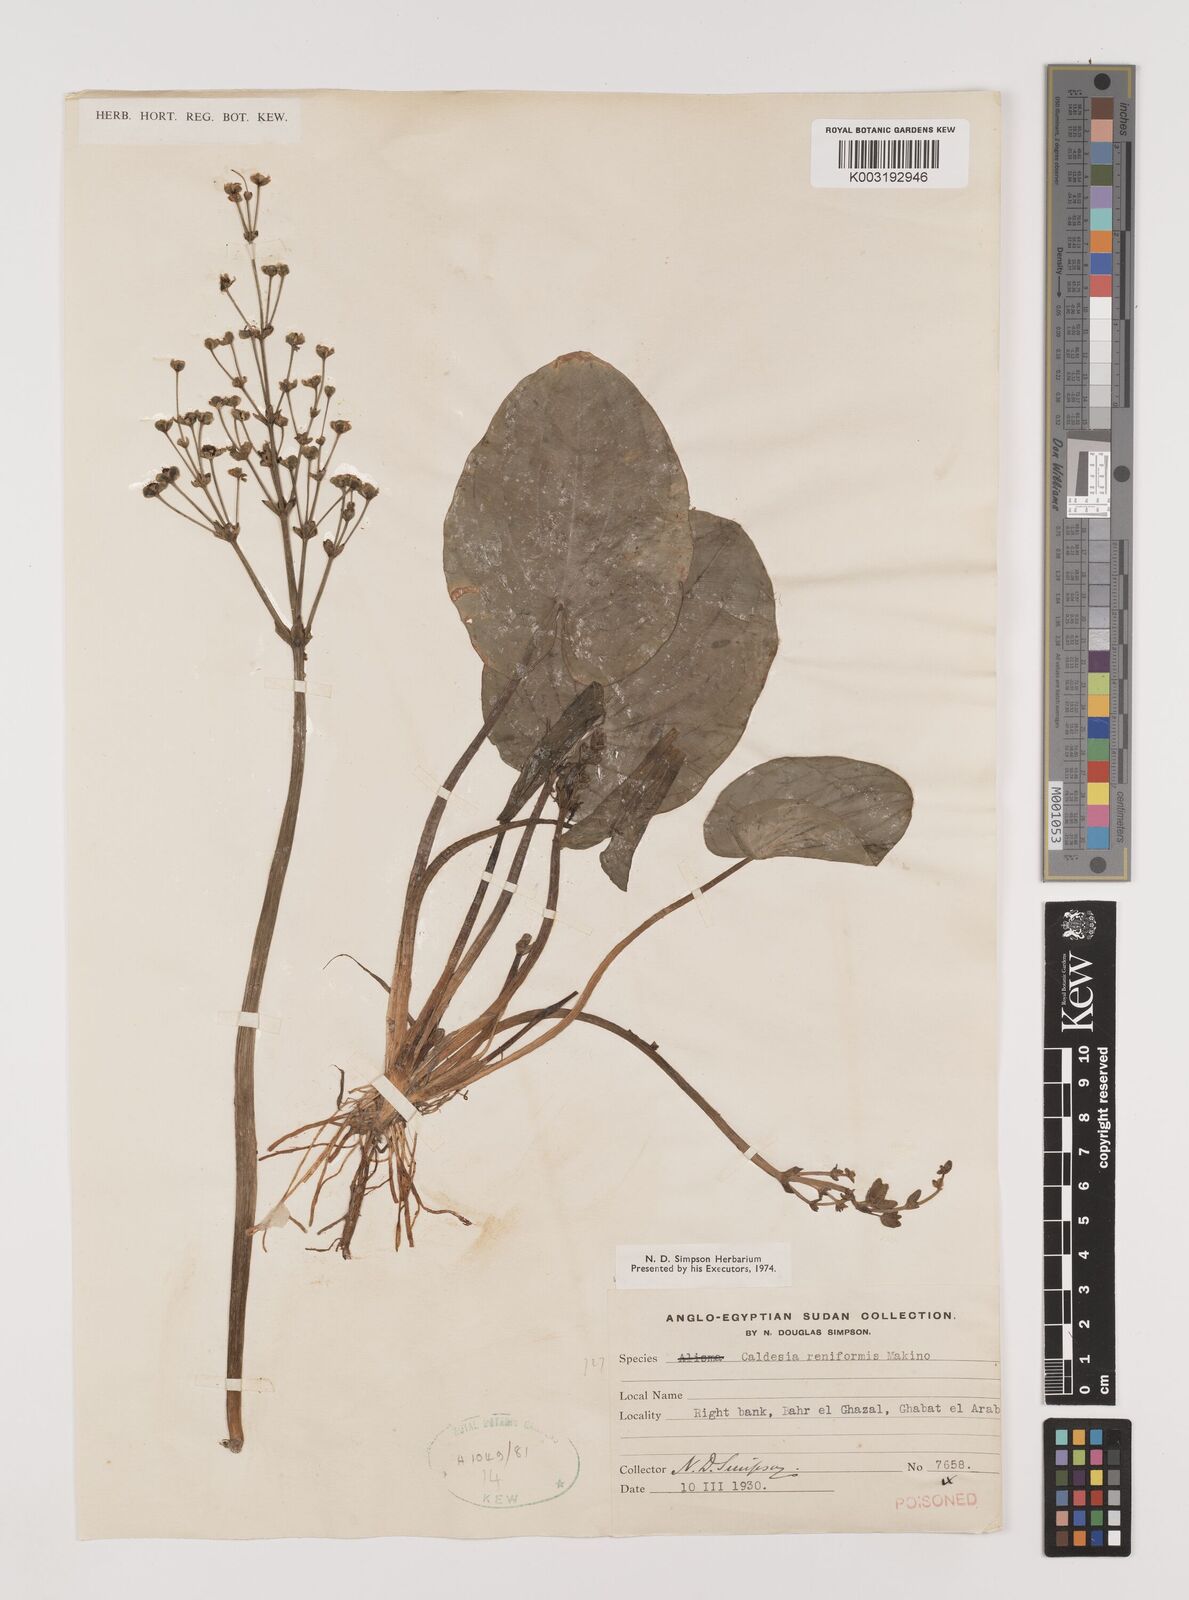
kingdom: Plantae
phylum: Tracheophyta
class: Liliopsida
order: Alismatales
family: Alismataceae
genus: Caldesia
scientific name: Caldesia parnassifolia
